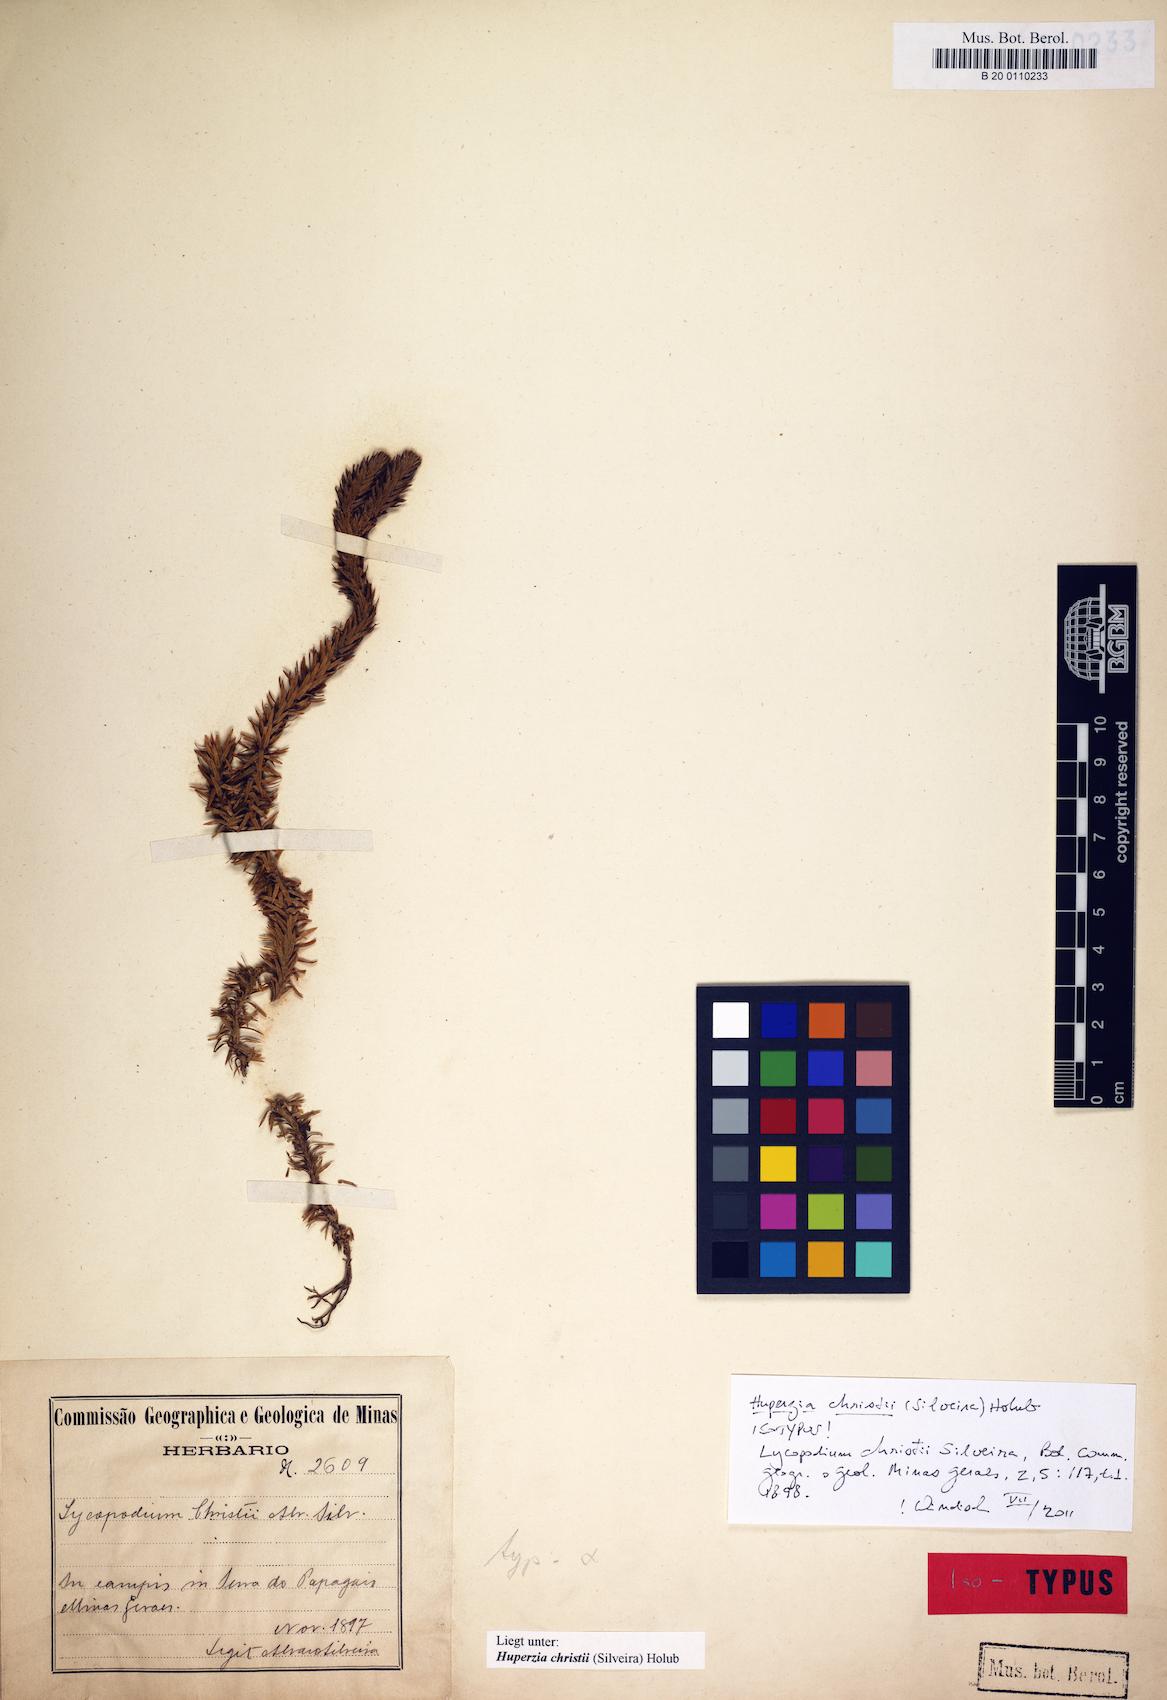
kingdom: Plantae
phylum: Tracheophyta
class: Lycopodiopsida
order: Lycopodiales
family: Lycopodiaceae
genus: Phlegmariurus
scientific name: Phlegmariurus christii
